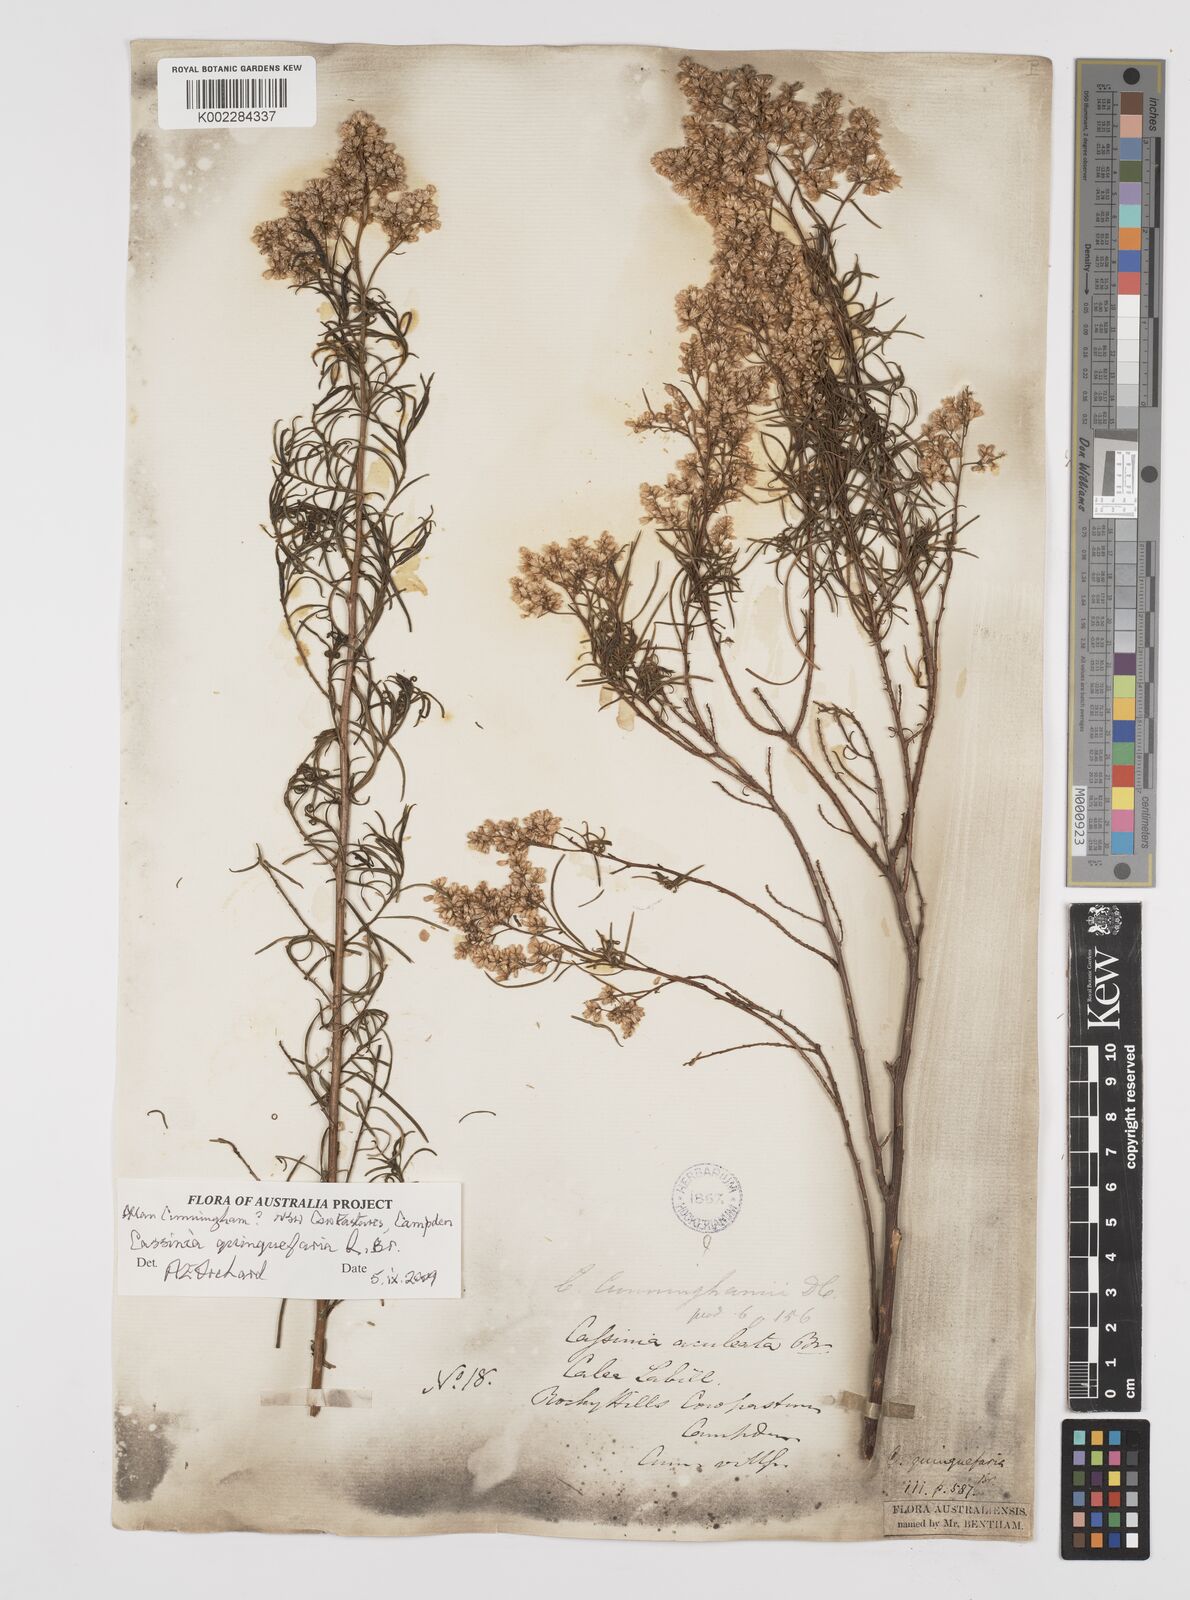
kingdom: Plantae
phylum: Tracheophyta
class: Magnoliopsida
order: Asterales
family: Asteraceae
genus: Cassinia
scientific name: Cassinia quinquefaria
